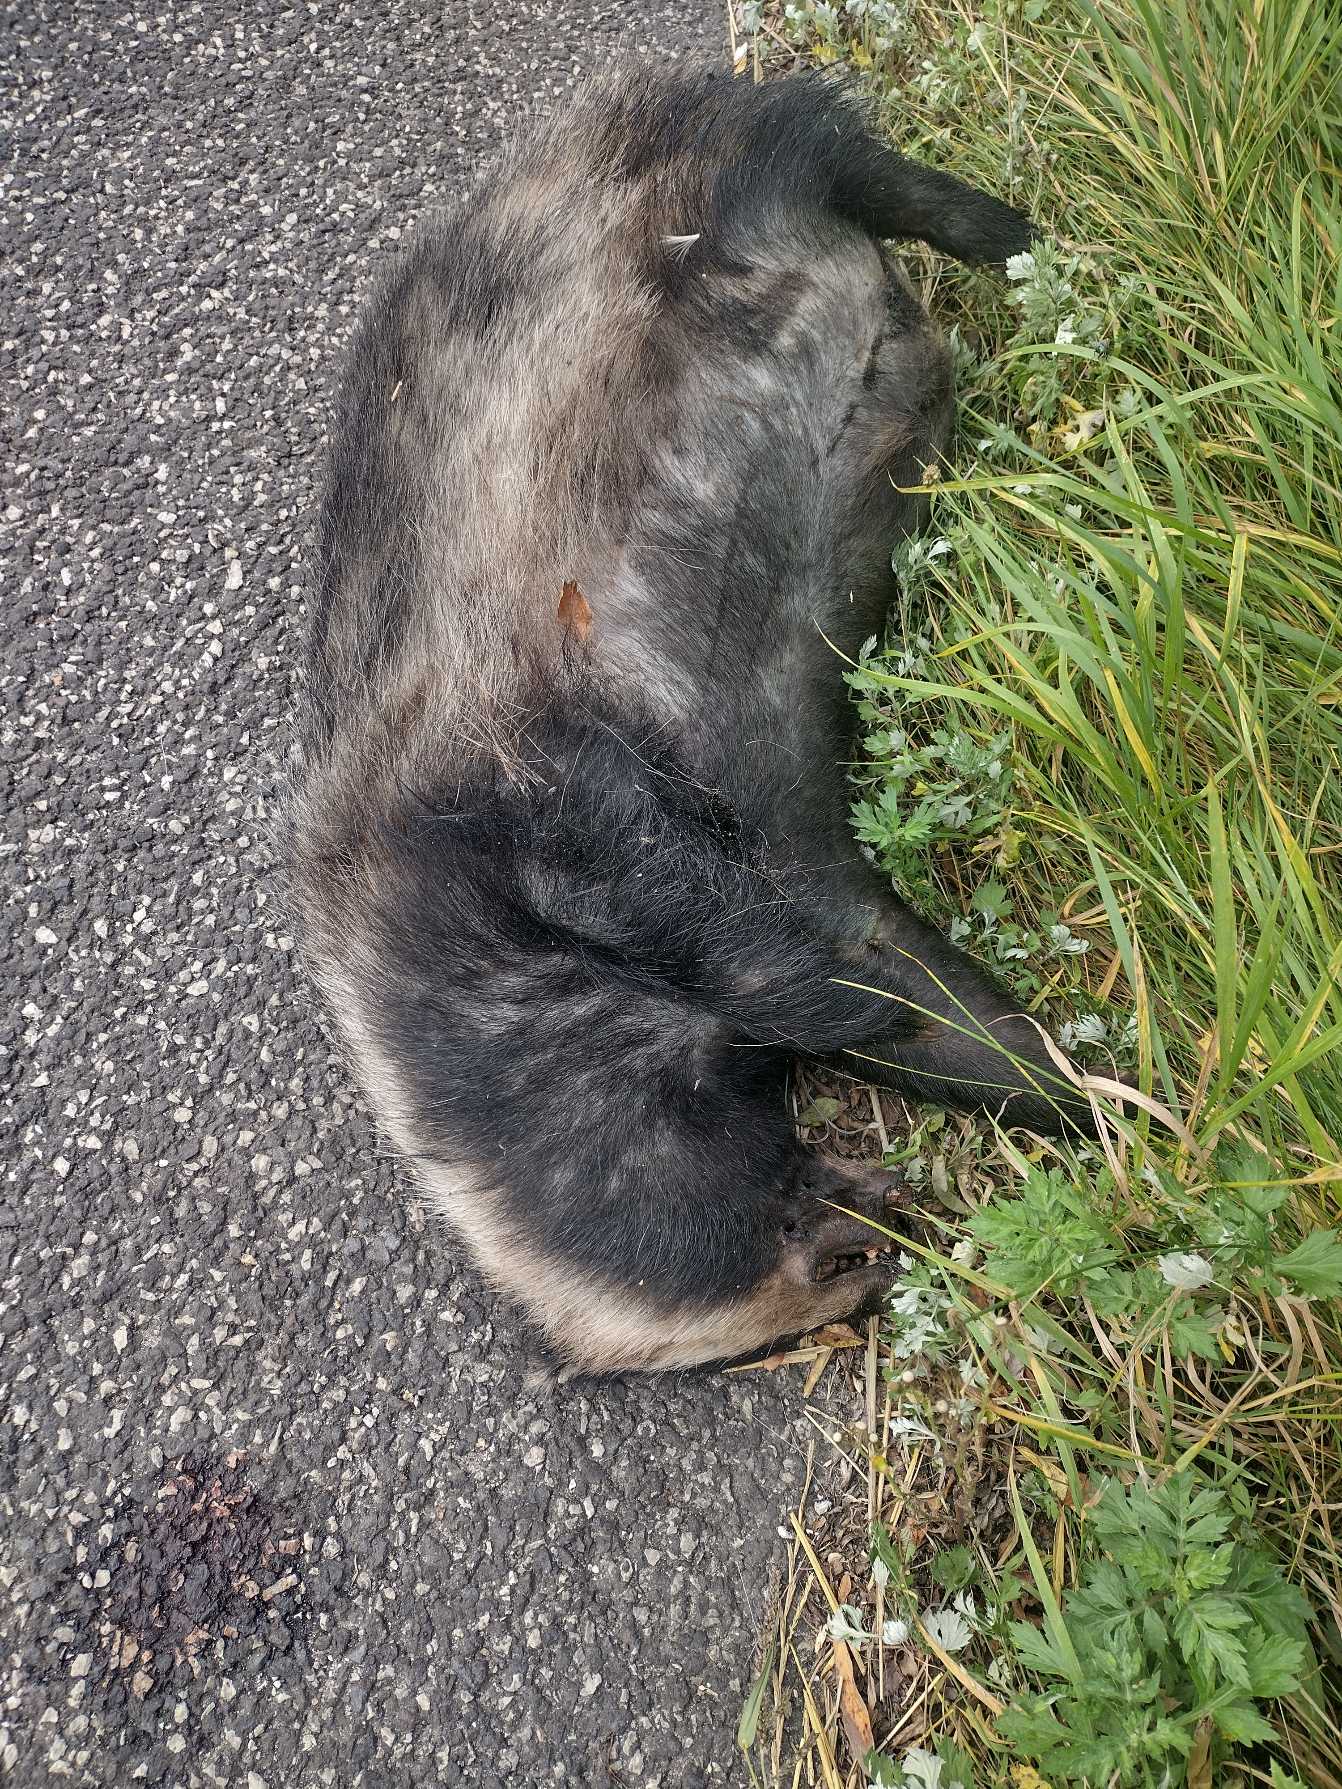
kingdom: Animalia
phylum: Chordata
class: Mammalia
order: Carnivora
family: Mustelidae
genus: Meles
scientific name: Meles meles
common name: Grævling
